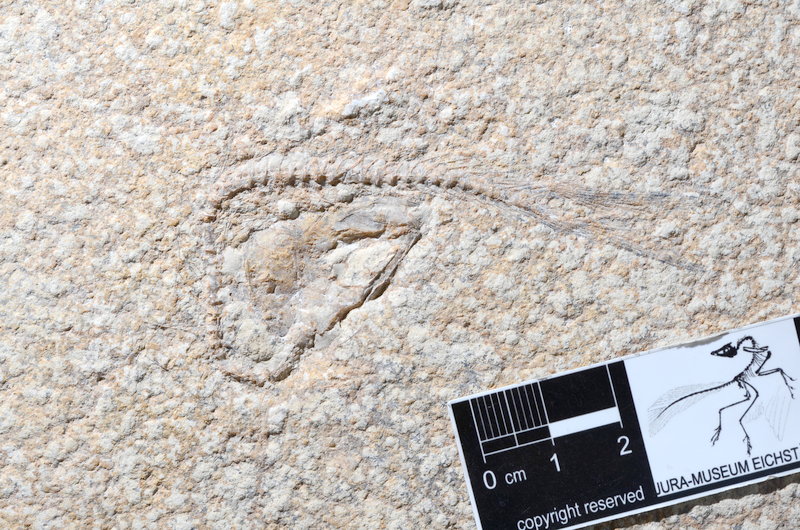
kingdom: Animalia
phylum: Chordata
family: Ascalaboidae
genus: Tharsis
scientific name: Tharsis dubius
